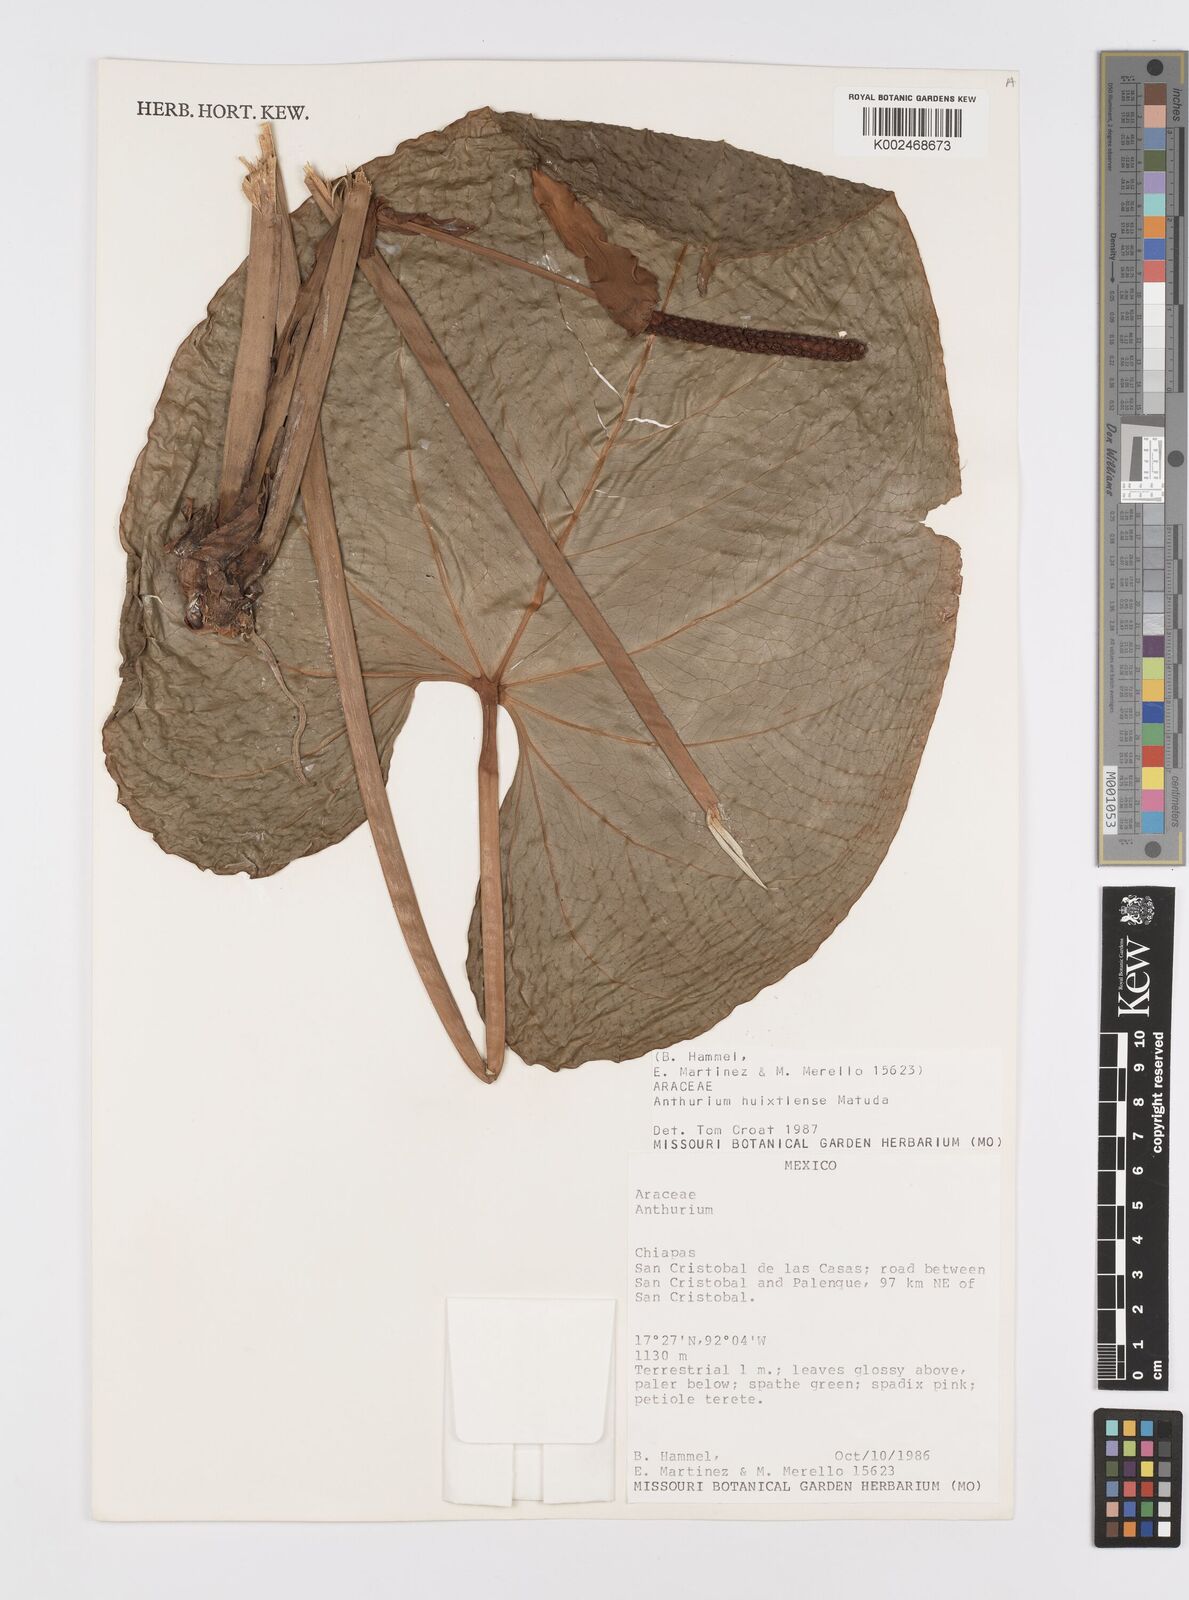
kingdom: Plantae
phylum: Tracheophyta
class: Liliopsida
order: Alismatales
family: Araceae
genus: Anthurium
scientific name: Anthurium huixtlense
